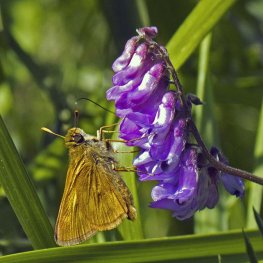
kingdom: Animalia
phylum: Arthropoda
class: Insecta
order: Lepidoptera
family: Hesperiidae
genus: Polites
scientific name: Polites
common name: Long Dash Skipper
